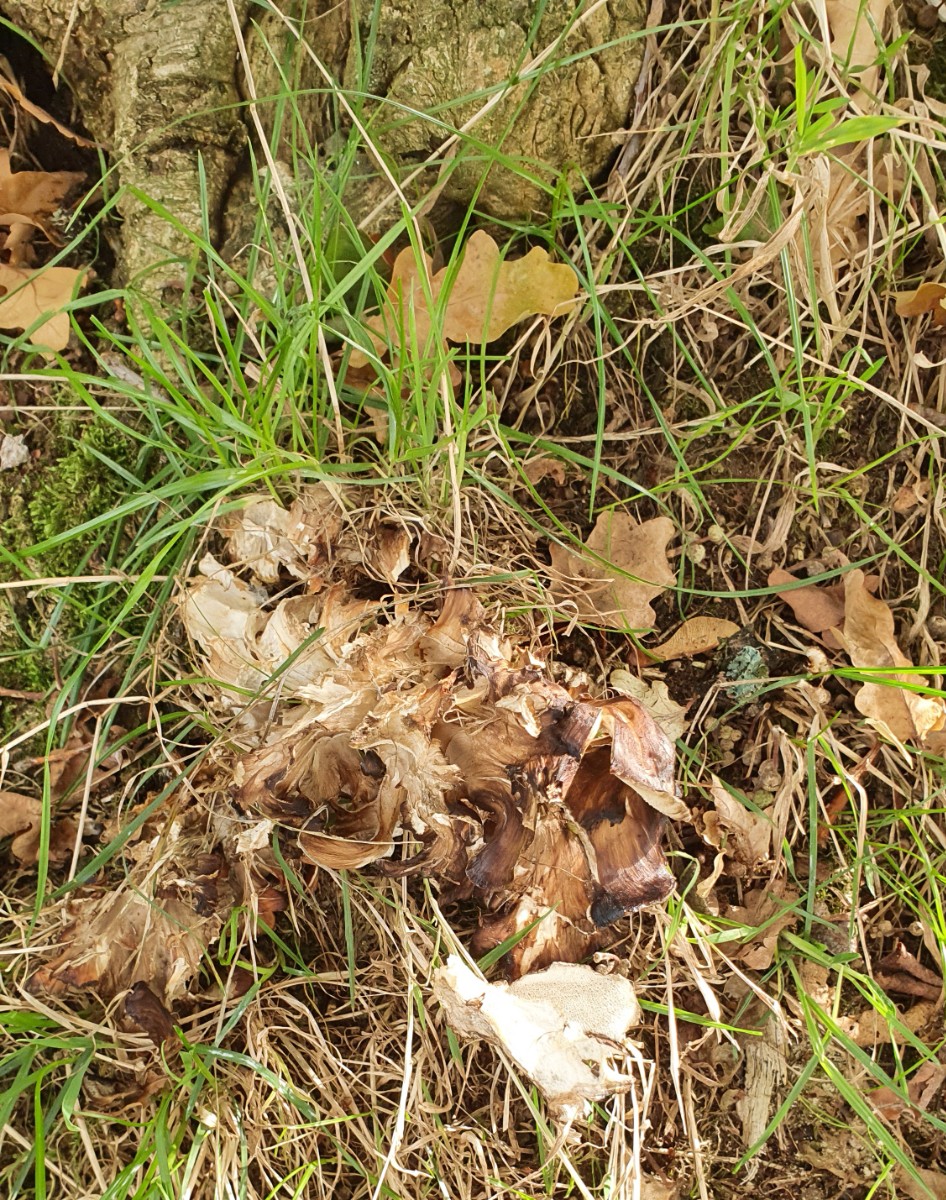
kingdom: Fungi
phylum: Basidiomycota
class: Agaricomycetes
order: Polyporales
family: Grifolaceae
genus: Grifola
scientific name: Grifola frondosa
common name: tueporesvamp
